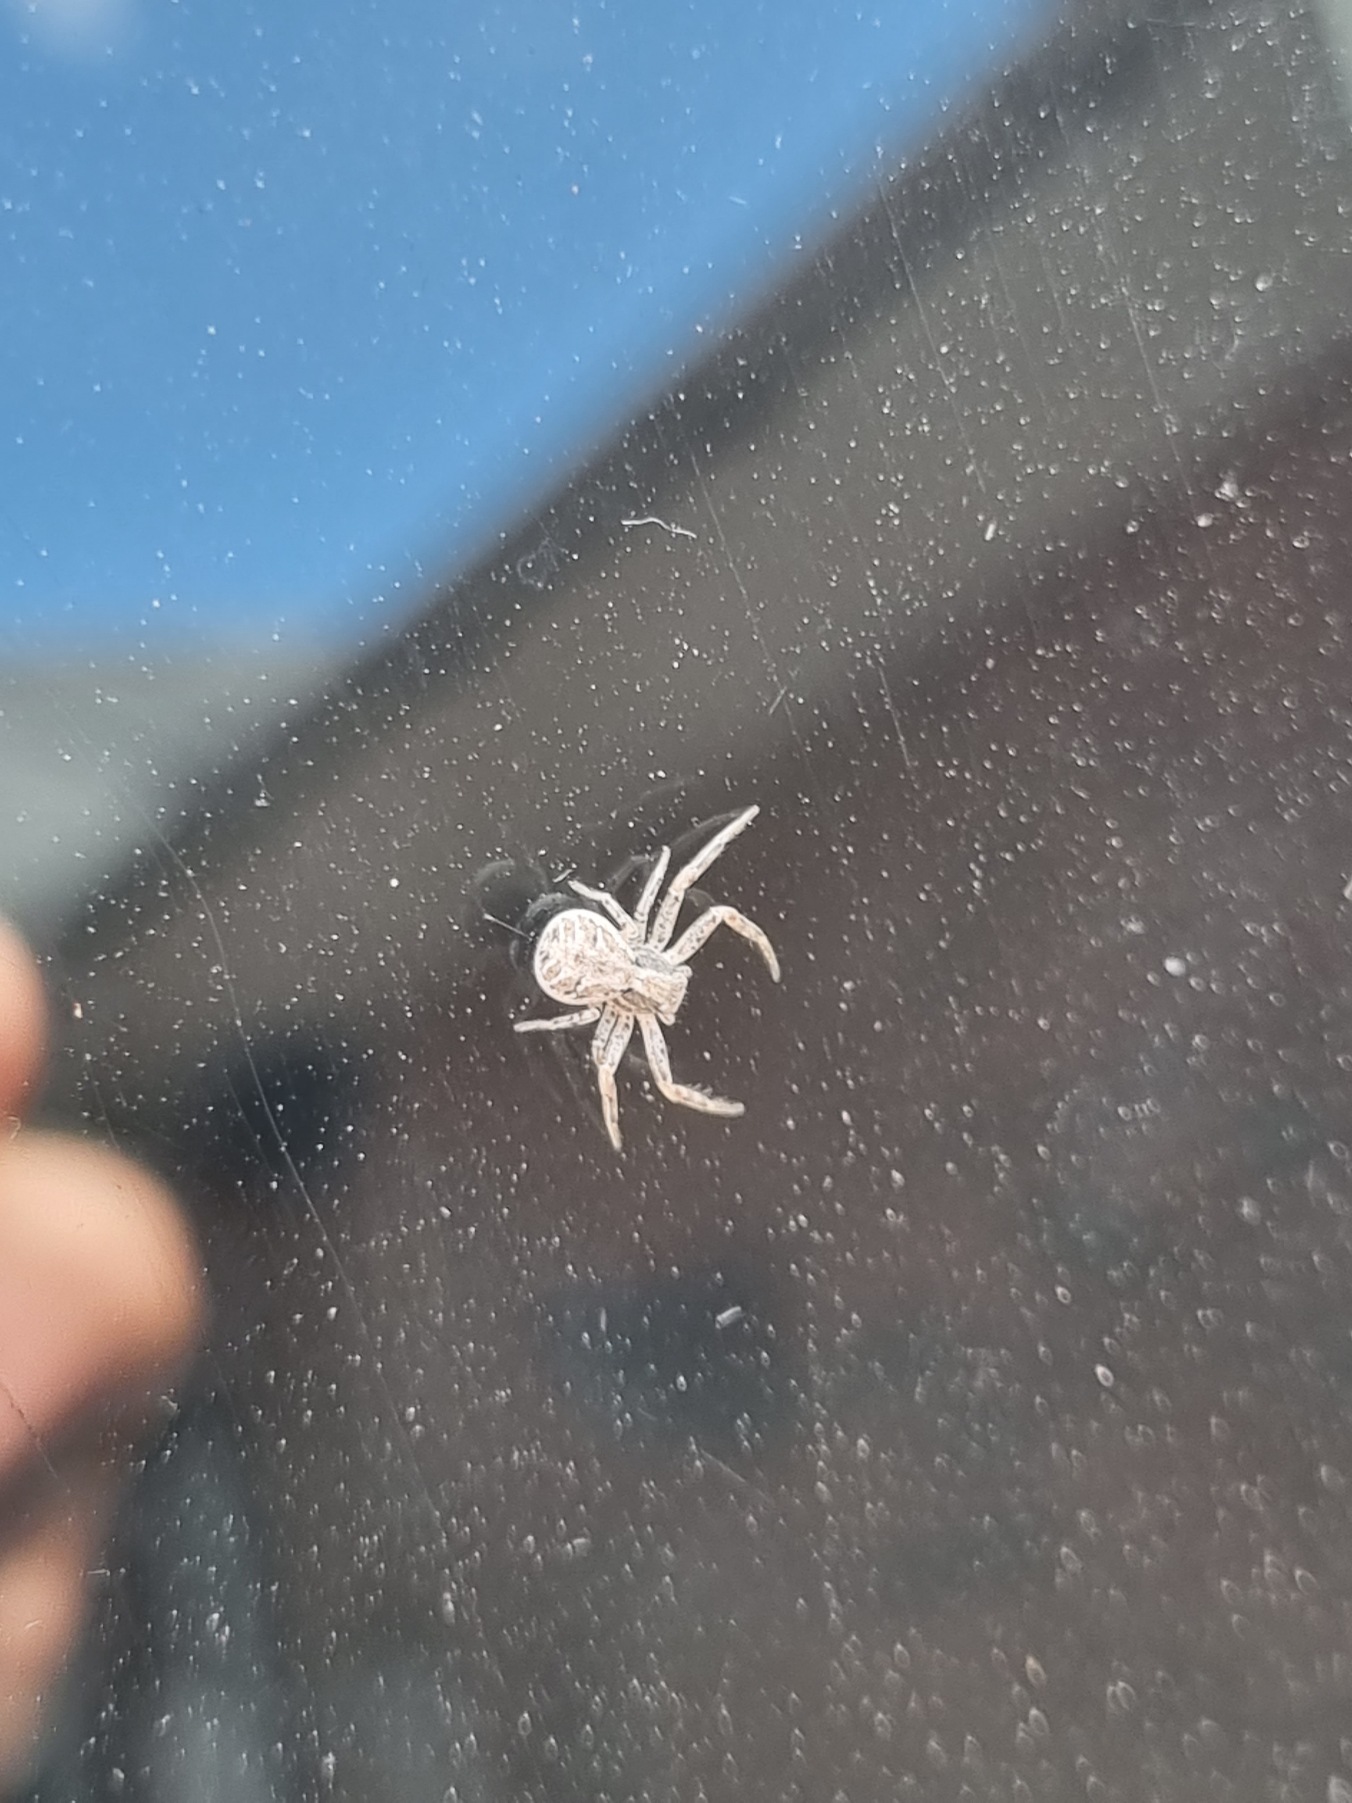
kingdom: Animalia
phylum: Arthropoda
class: Arachnida
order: Araneae
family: Thomisidae
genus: Xysticus
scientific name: Xysticus
